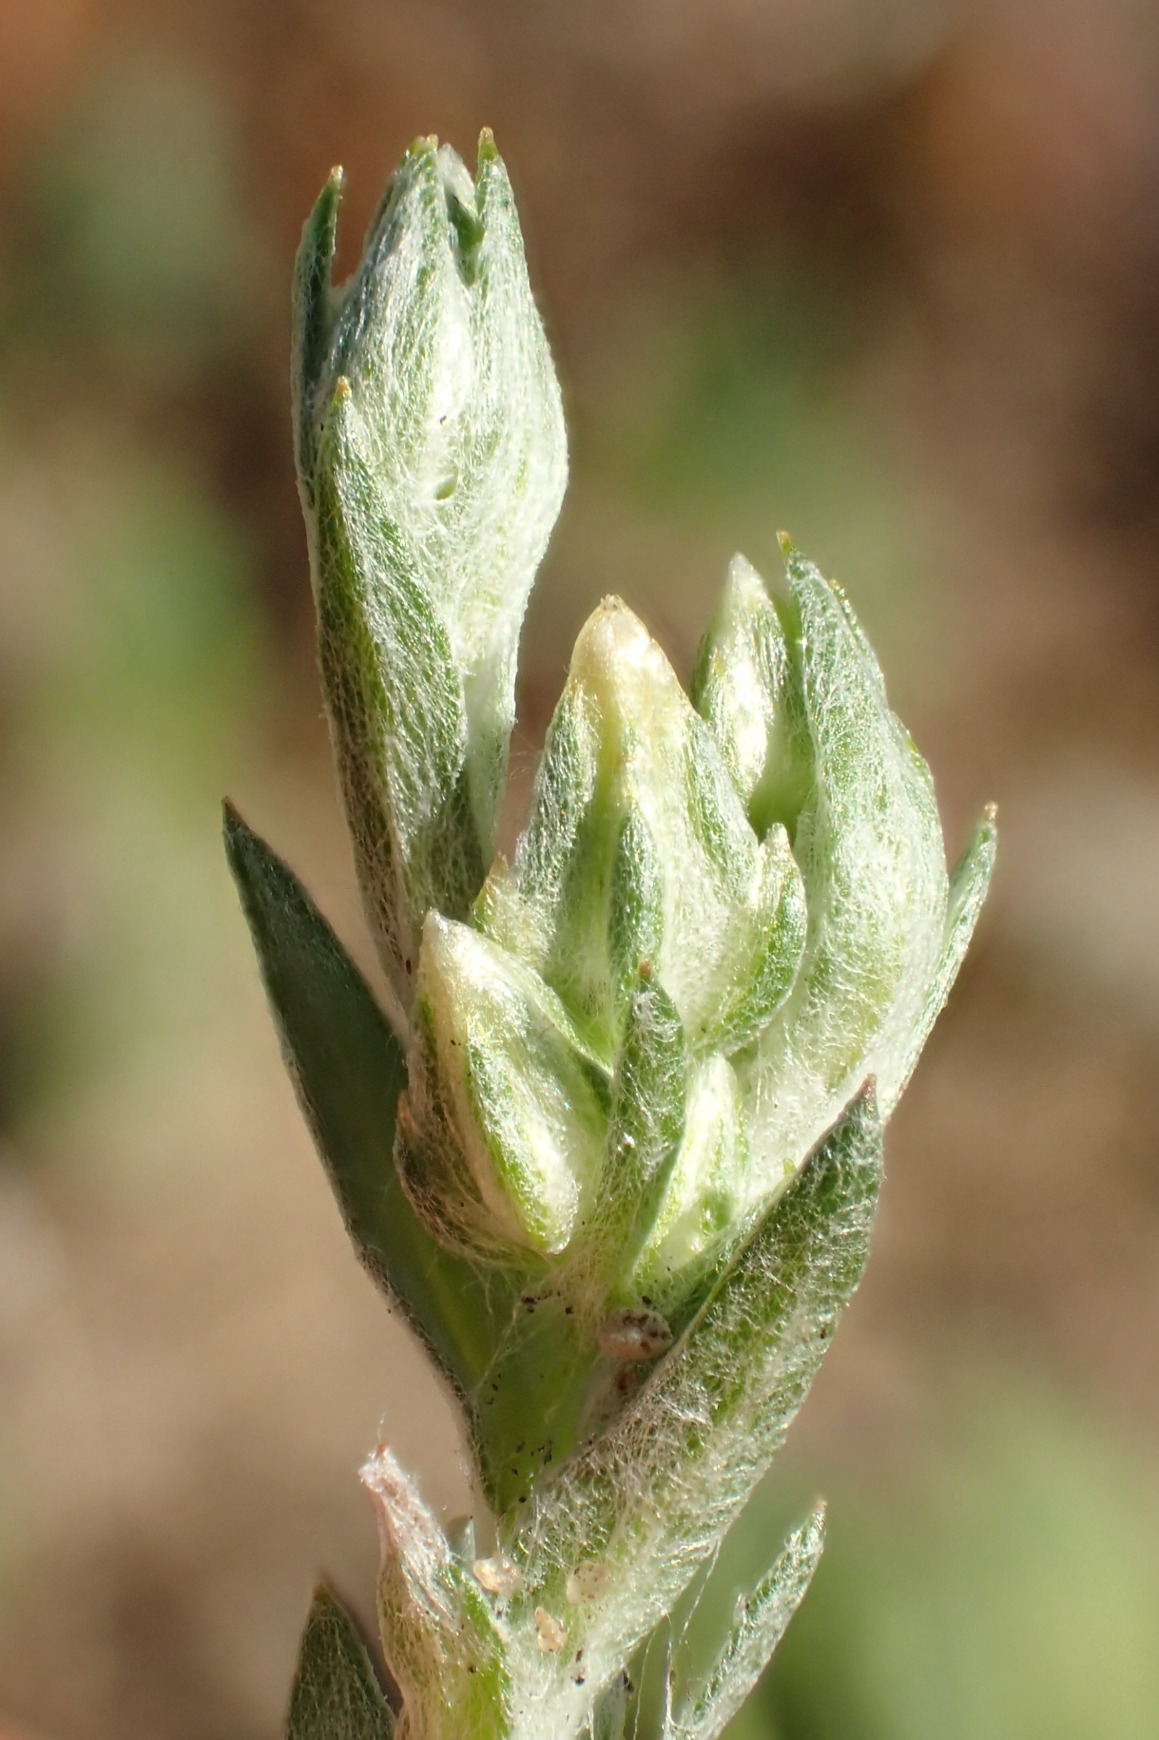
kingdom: Plantae
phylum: Tracheophyta
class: Magnoliopsida
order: Asterales
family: Asteraceae
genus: Logfia
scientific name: Logfia minima
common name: Liden museurt
